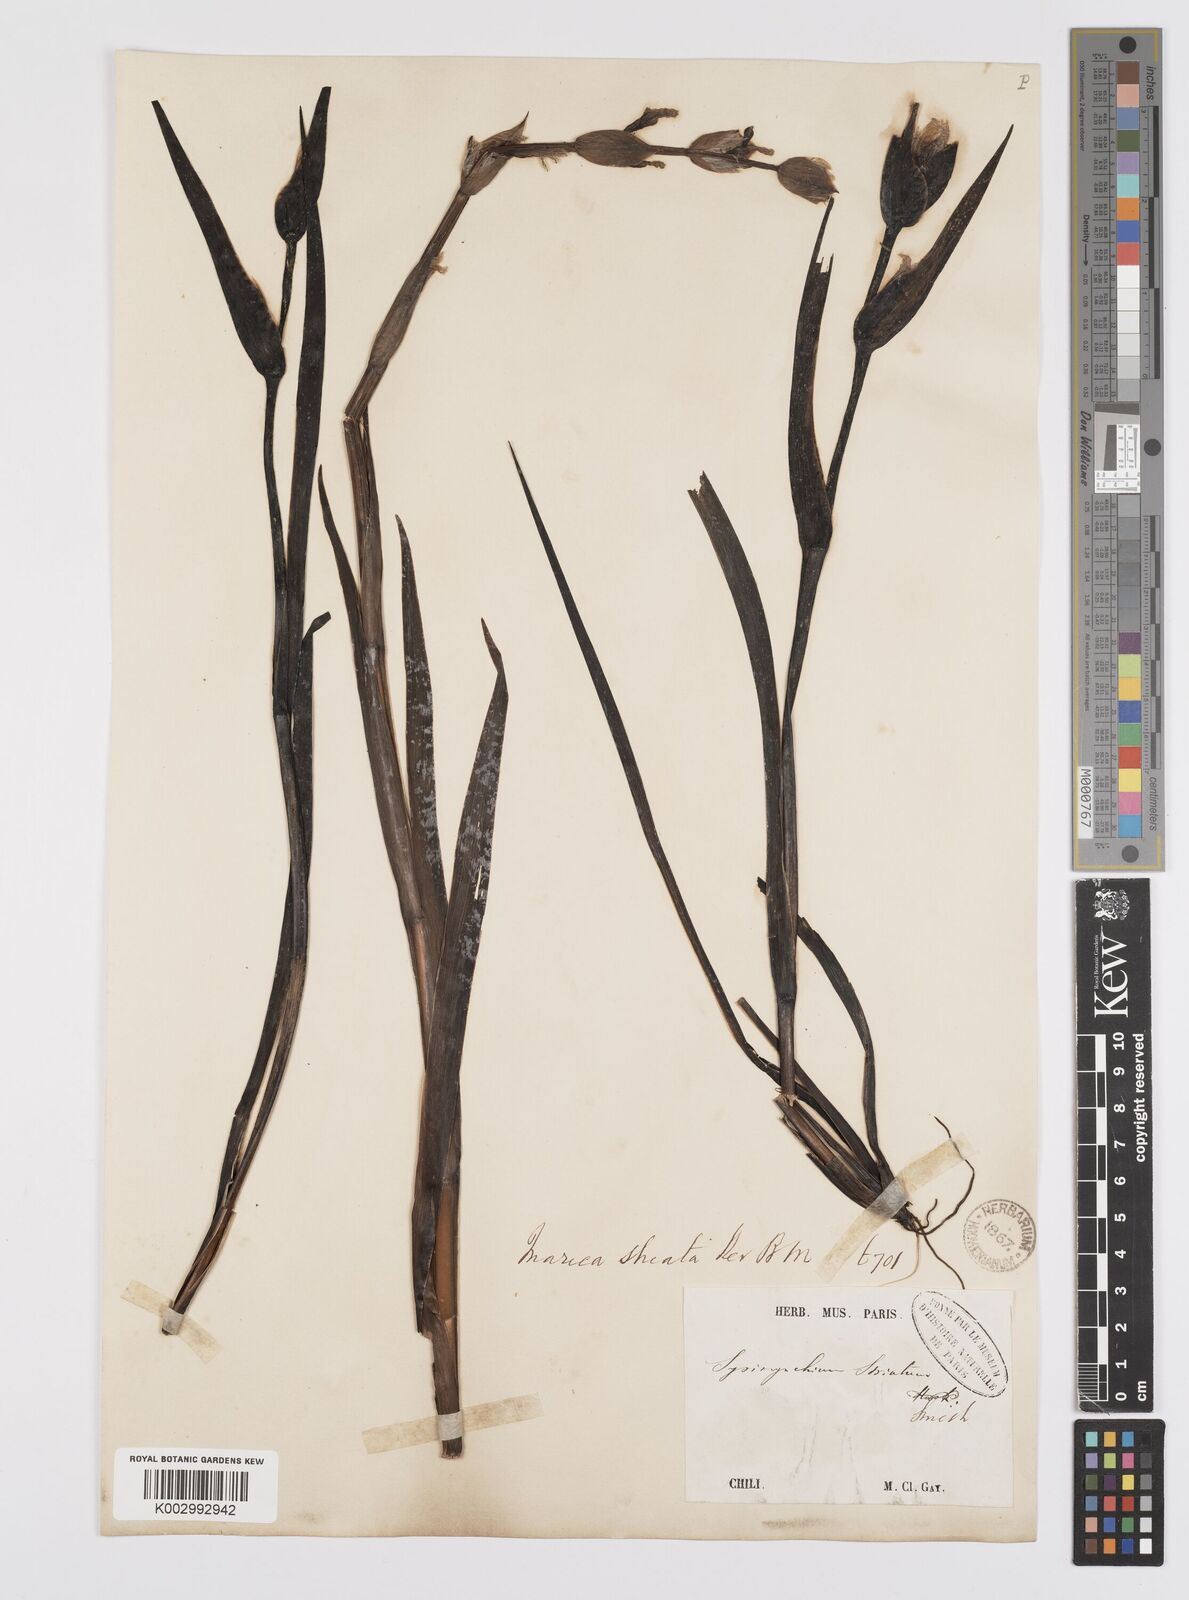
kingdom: Plantae
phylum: Tracheophyta
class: Liliopsida
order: Asparagales
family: Iridaceae
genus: Sisyrinchium
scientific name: Sisyrinchium striatum
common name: Pale yellow-eyed-grass
